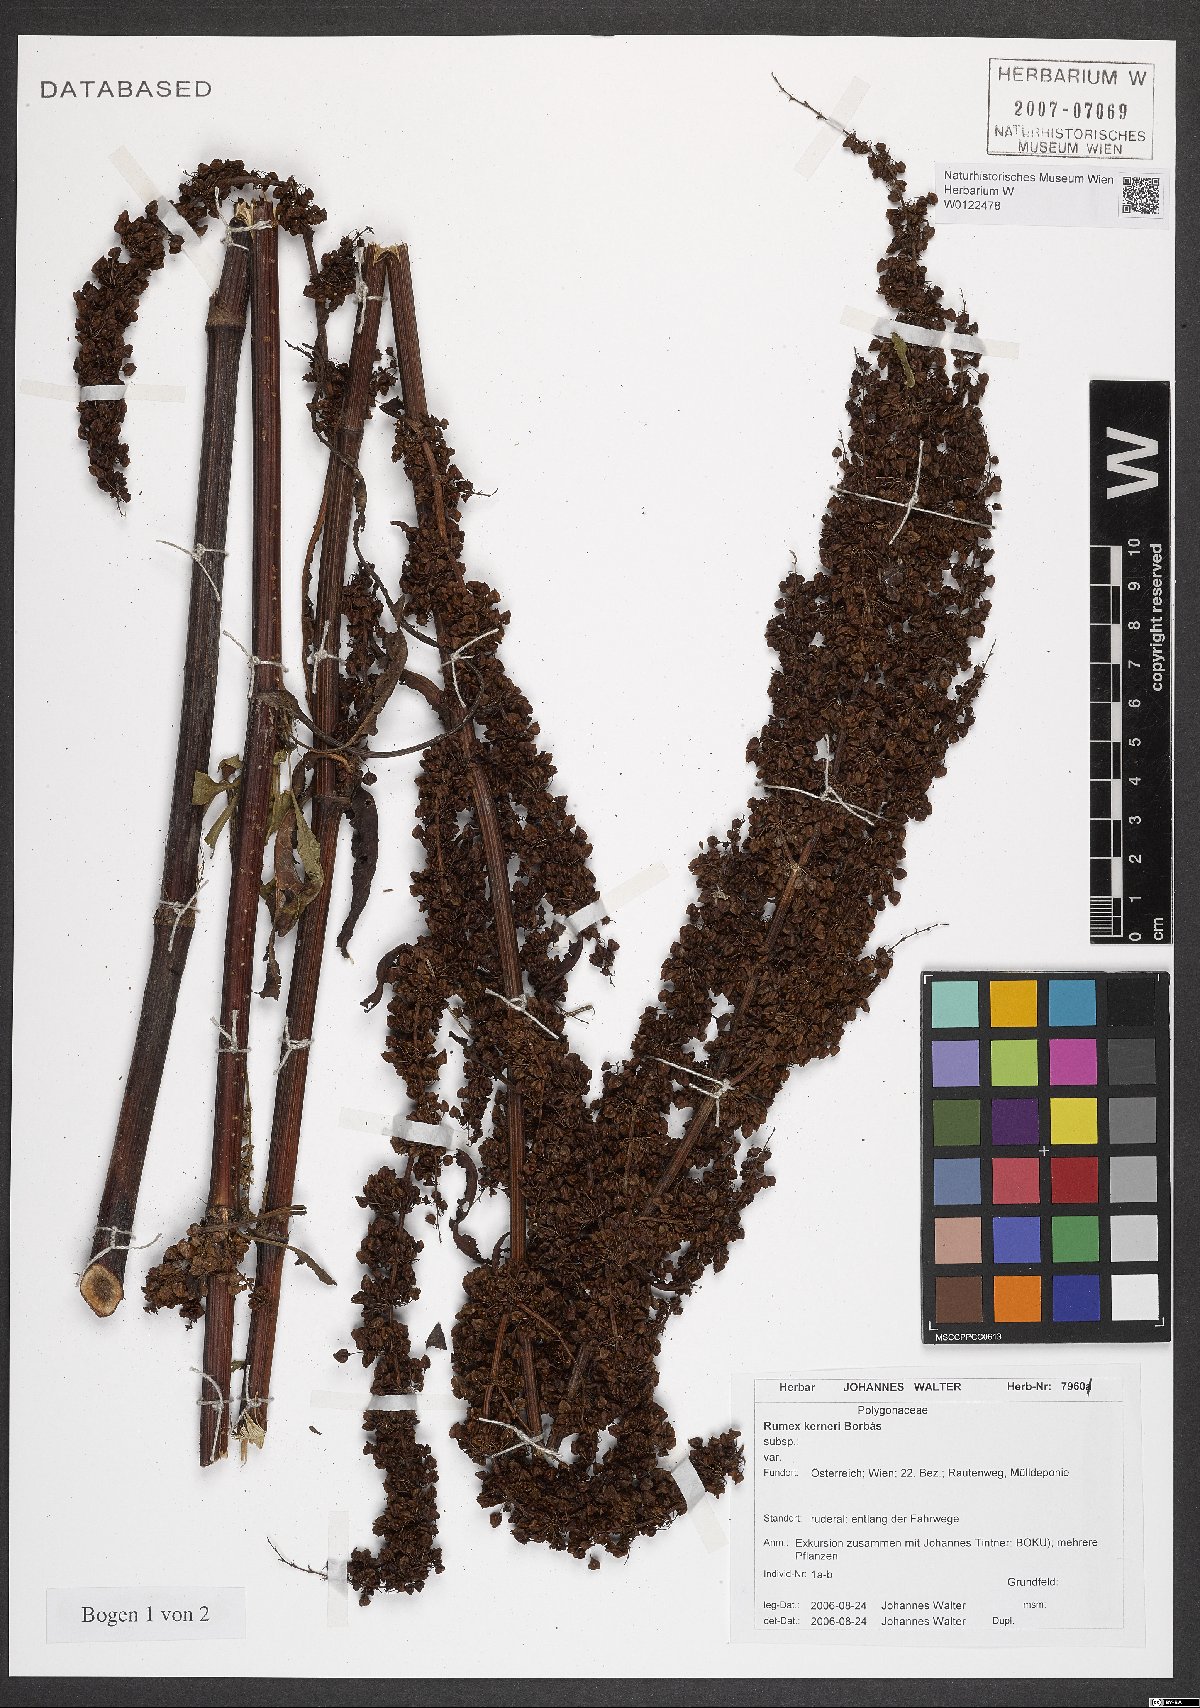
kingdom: Plantae
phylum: Tracheophyta
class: Magnoliopsida
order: Caryophyllales
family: Polygonaceae
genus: Rumex
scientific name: Rumex kerneri
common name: Kerner's dock
